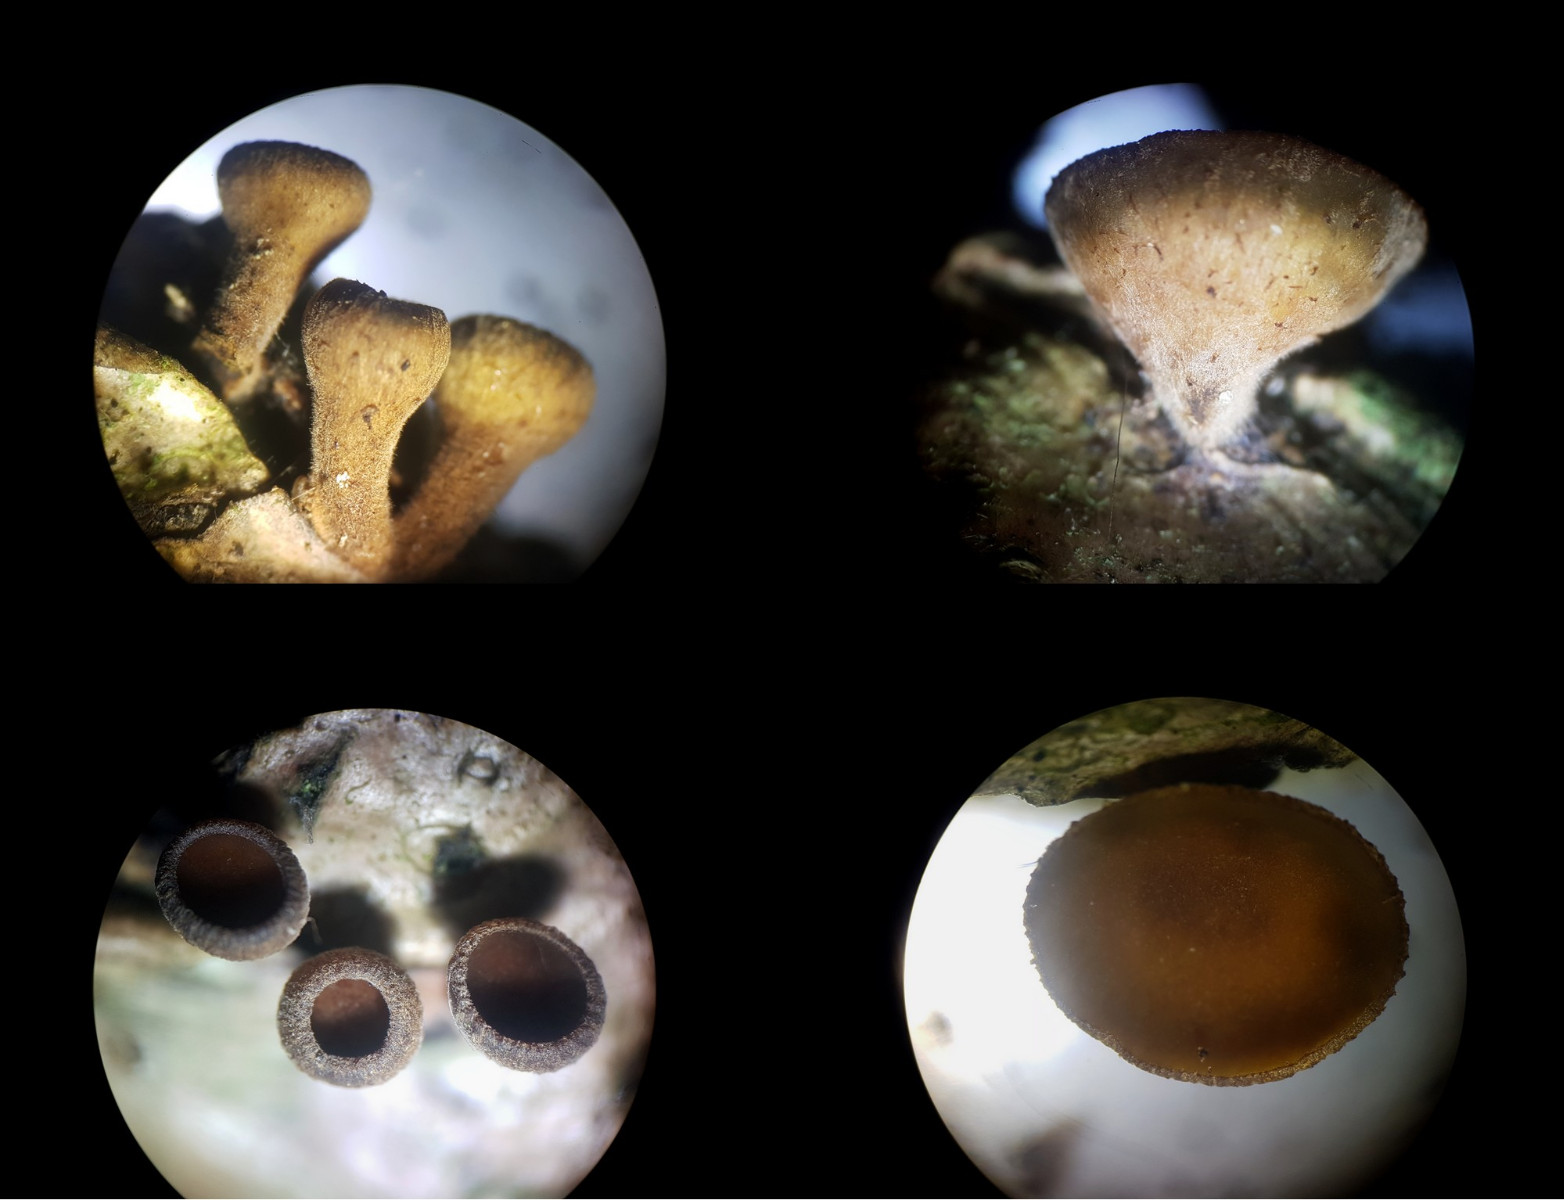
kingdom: Fungi
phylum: Ascomycota
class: Leotiomycetes
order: Helotiales
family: Rutstroemiaceae
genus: Rutstroemia
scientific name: Rutstroemia firma
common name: gren-brunskive
